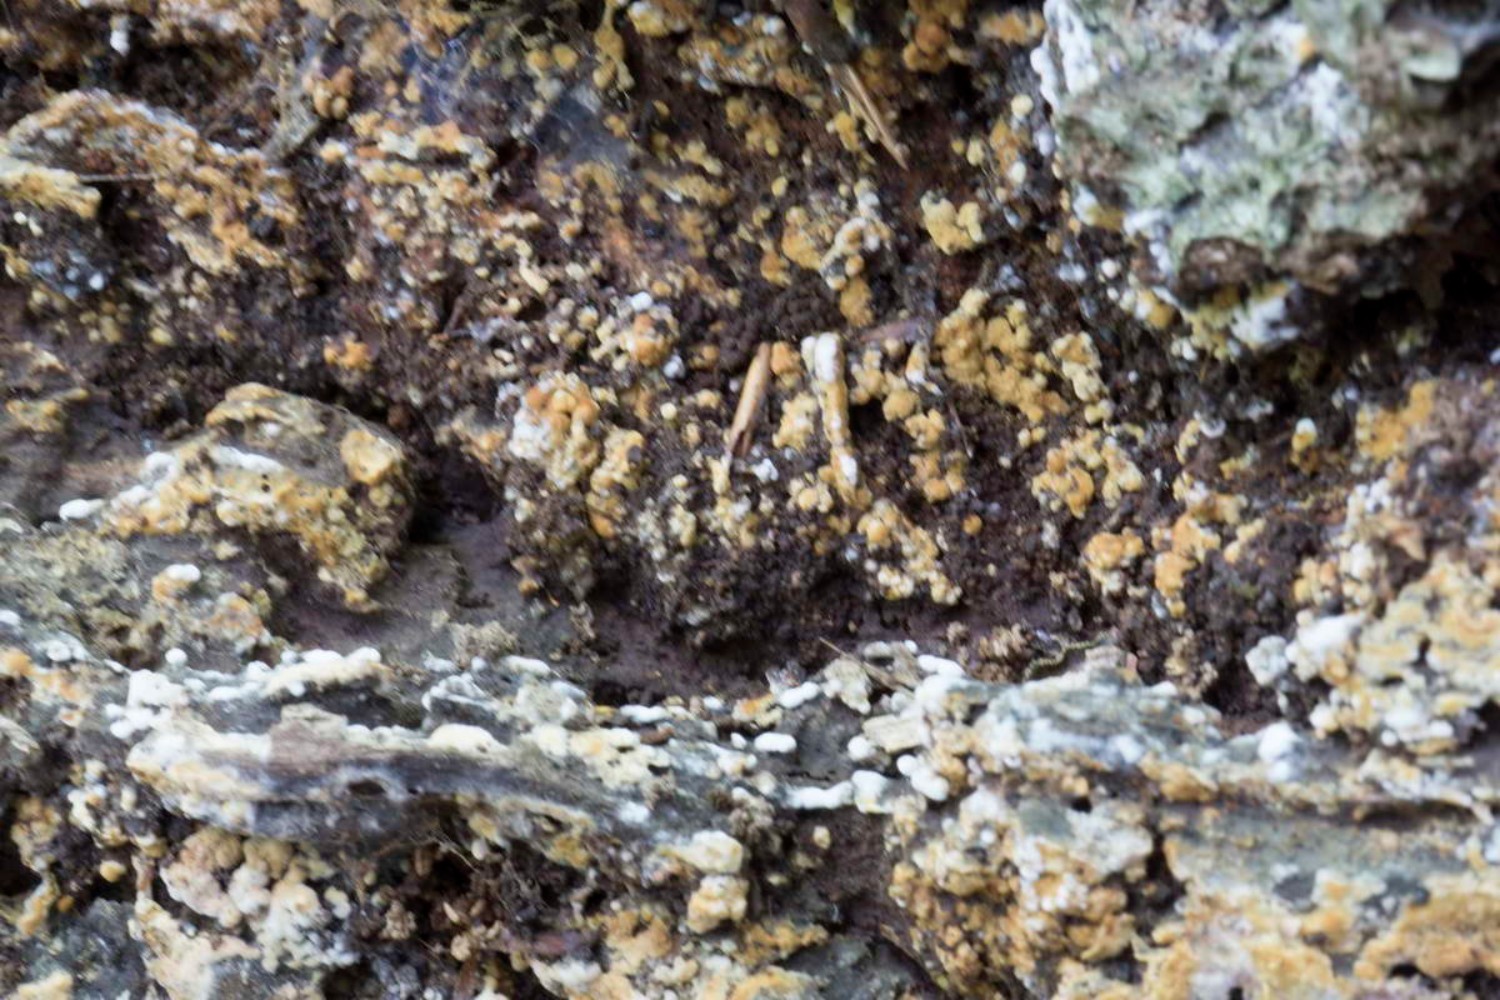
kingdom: Fungi
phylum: Basidiomycota
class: Agaricomycetes
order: Cantharellales
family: Botryobasidiaceae
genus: Botryobasidium
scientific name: Botryobasidium aureum
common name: gylden spindhinde
